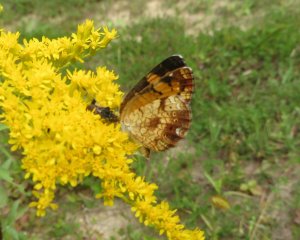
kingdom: Animalia
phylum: Arthropoda
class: Insecta
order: Lepidoptera
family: Nymphalidae
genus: Phyciodes
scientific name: Phyciodes tharos
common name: Pearl Crescent
